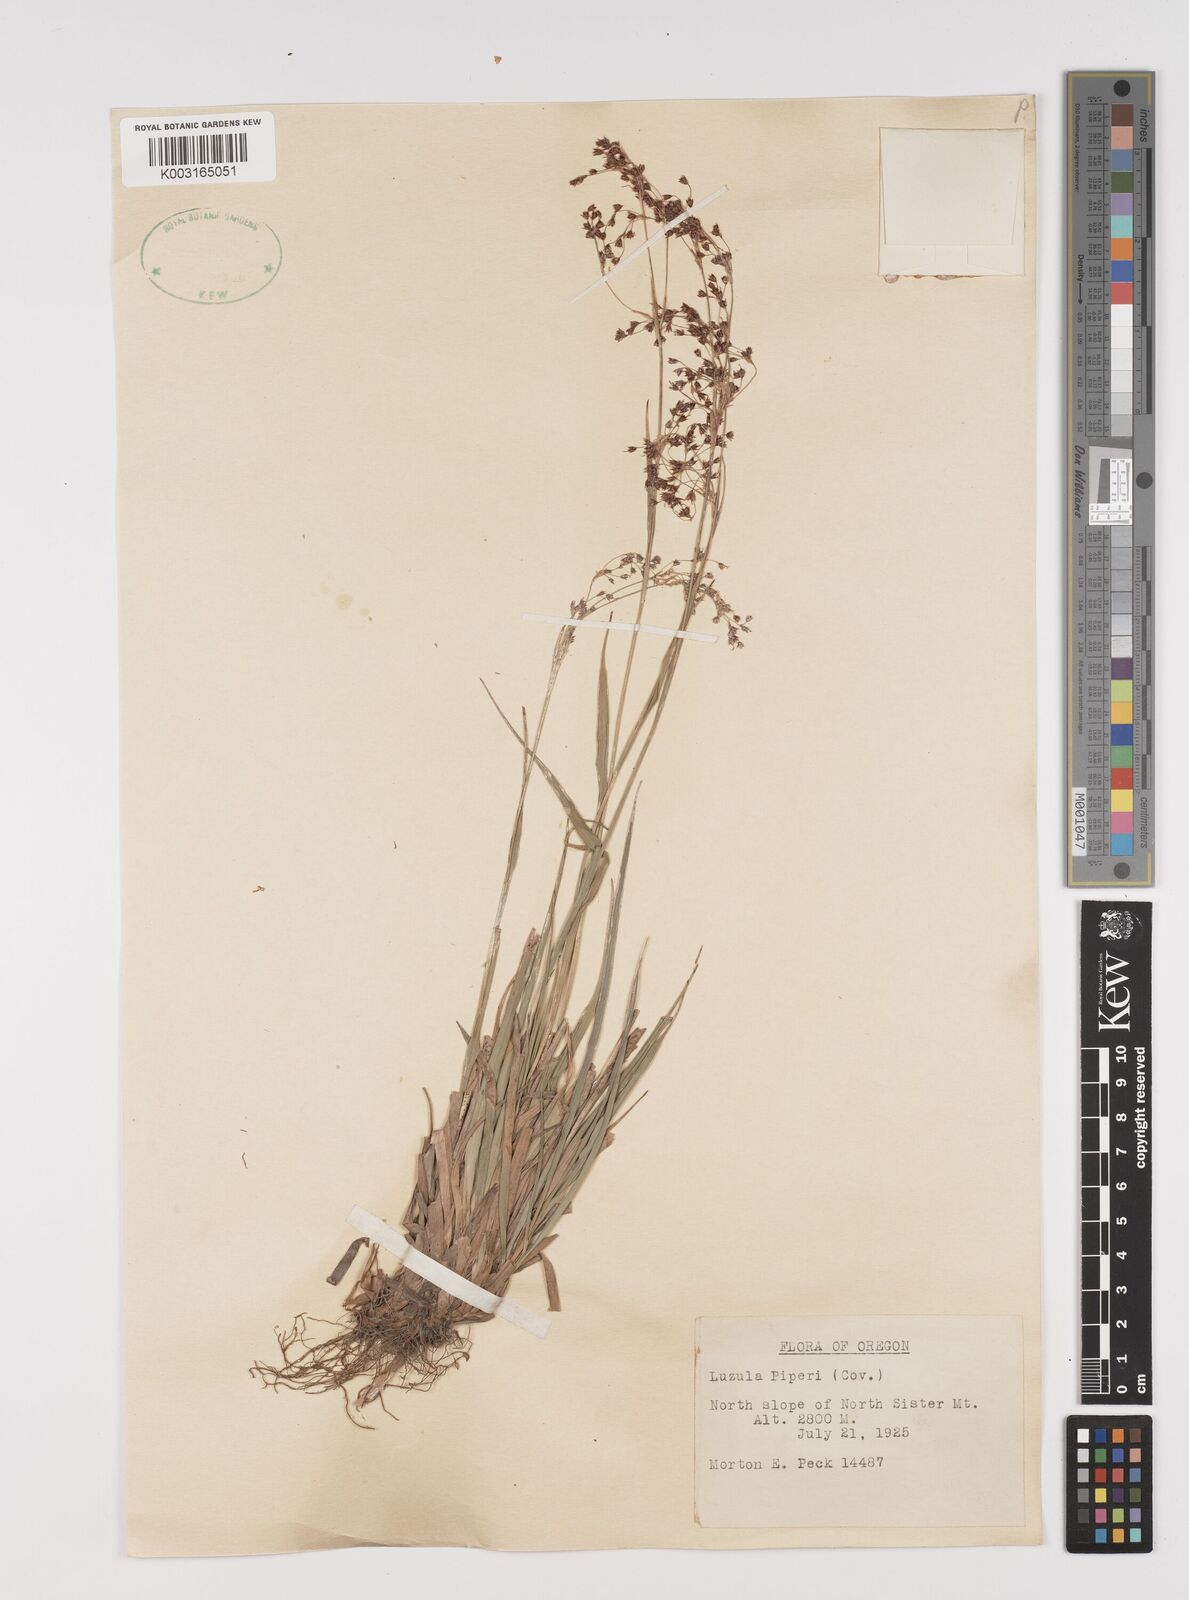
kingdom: Plantae
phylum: Tracheophyta
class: Liliopsida
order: Poales
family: Juncaceae
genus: Luzula
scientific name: Luzula piperi
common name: Piper's wood-rush
